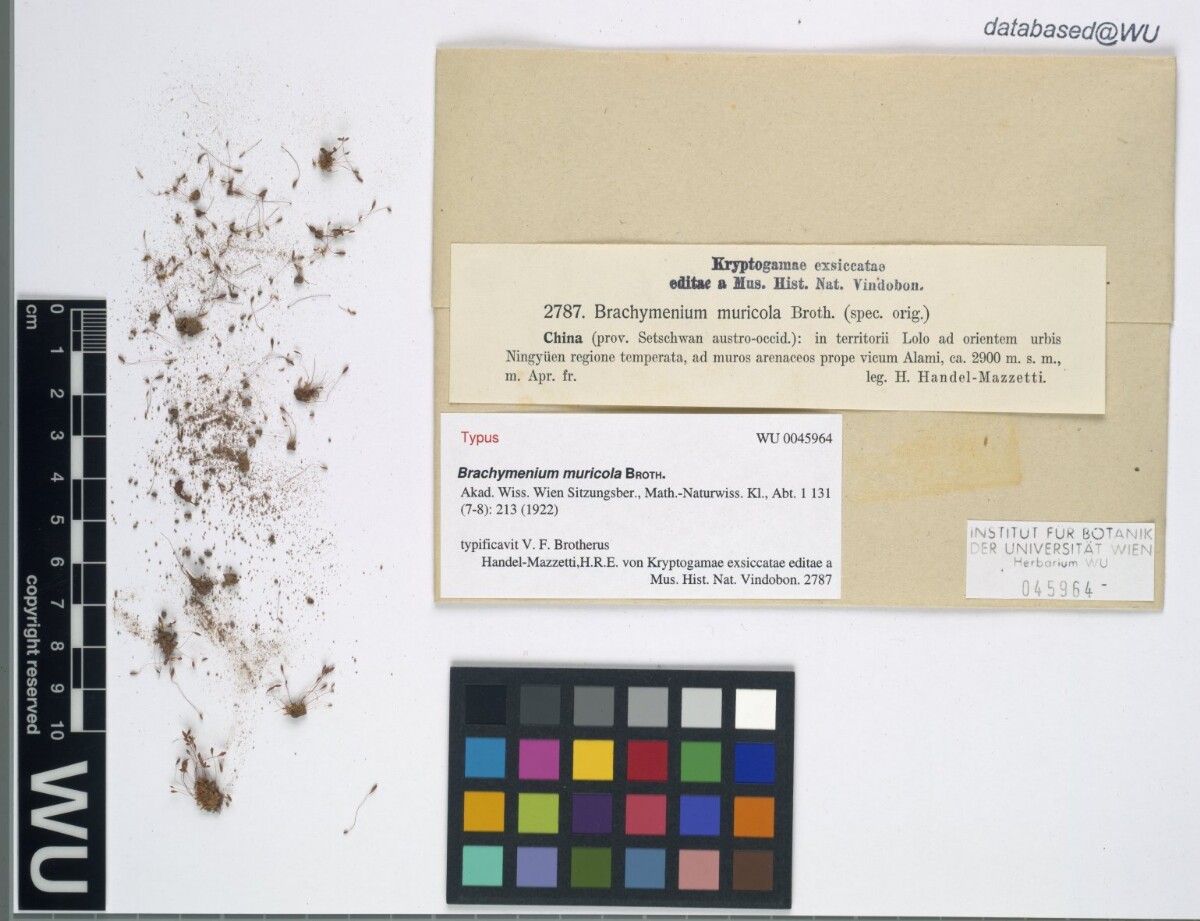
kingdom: Plantae
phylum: Bryophyta
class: Bryopsida
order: Bryales
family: Bryaceae
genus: Brachymenium
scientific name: Brachymenium muricola
